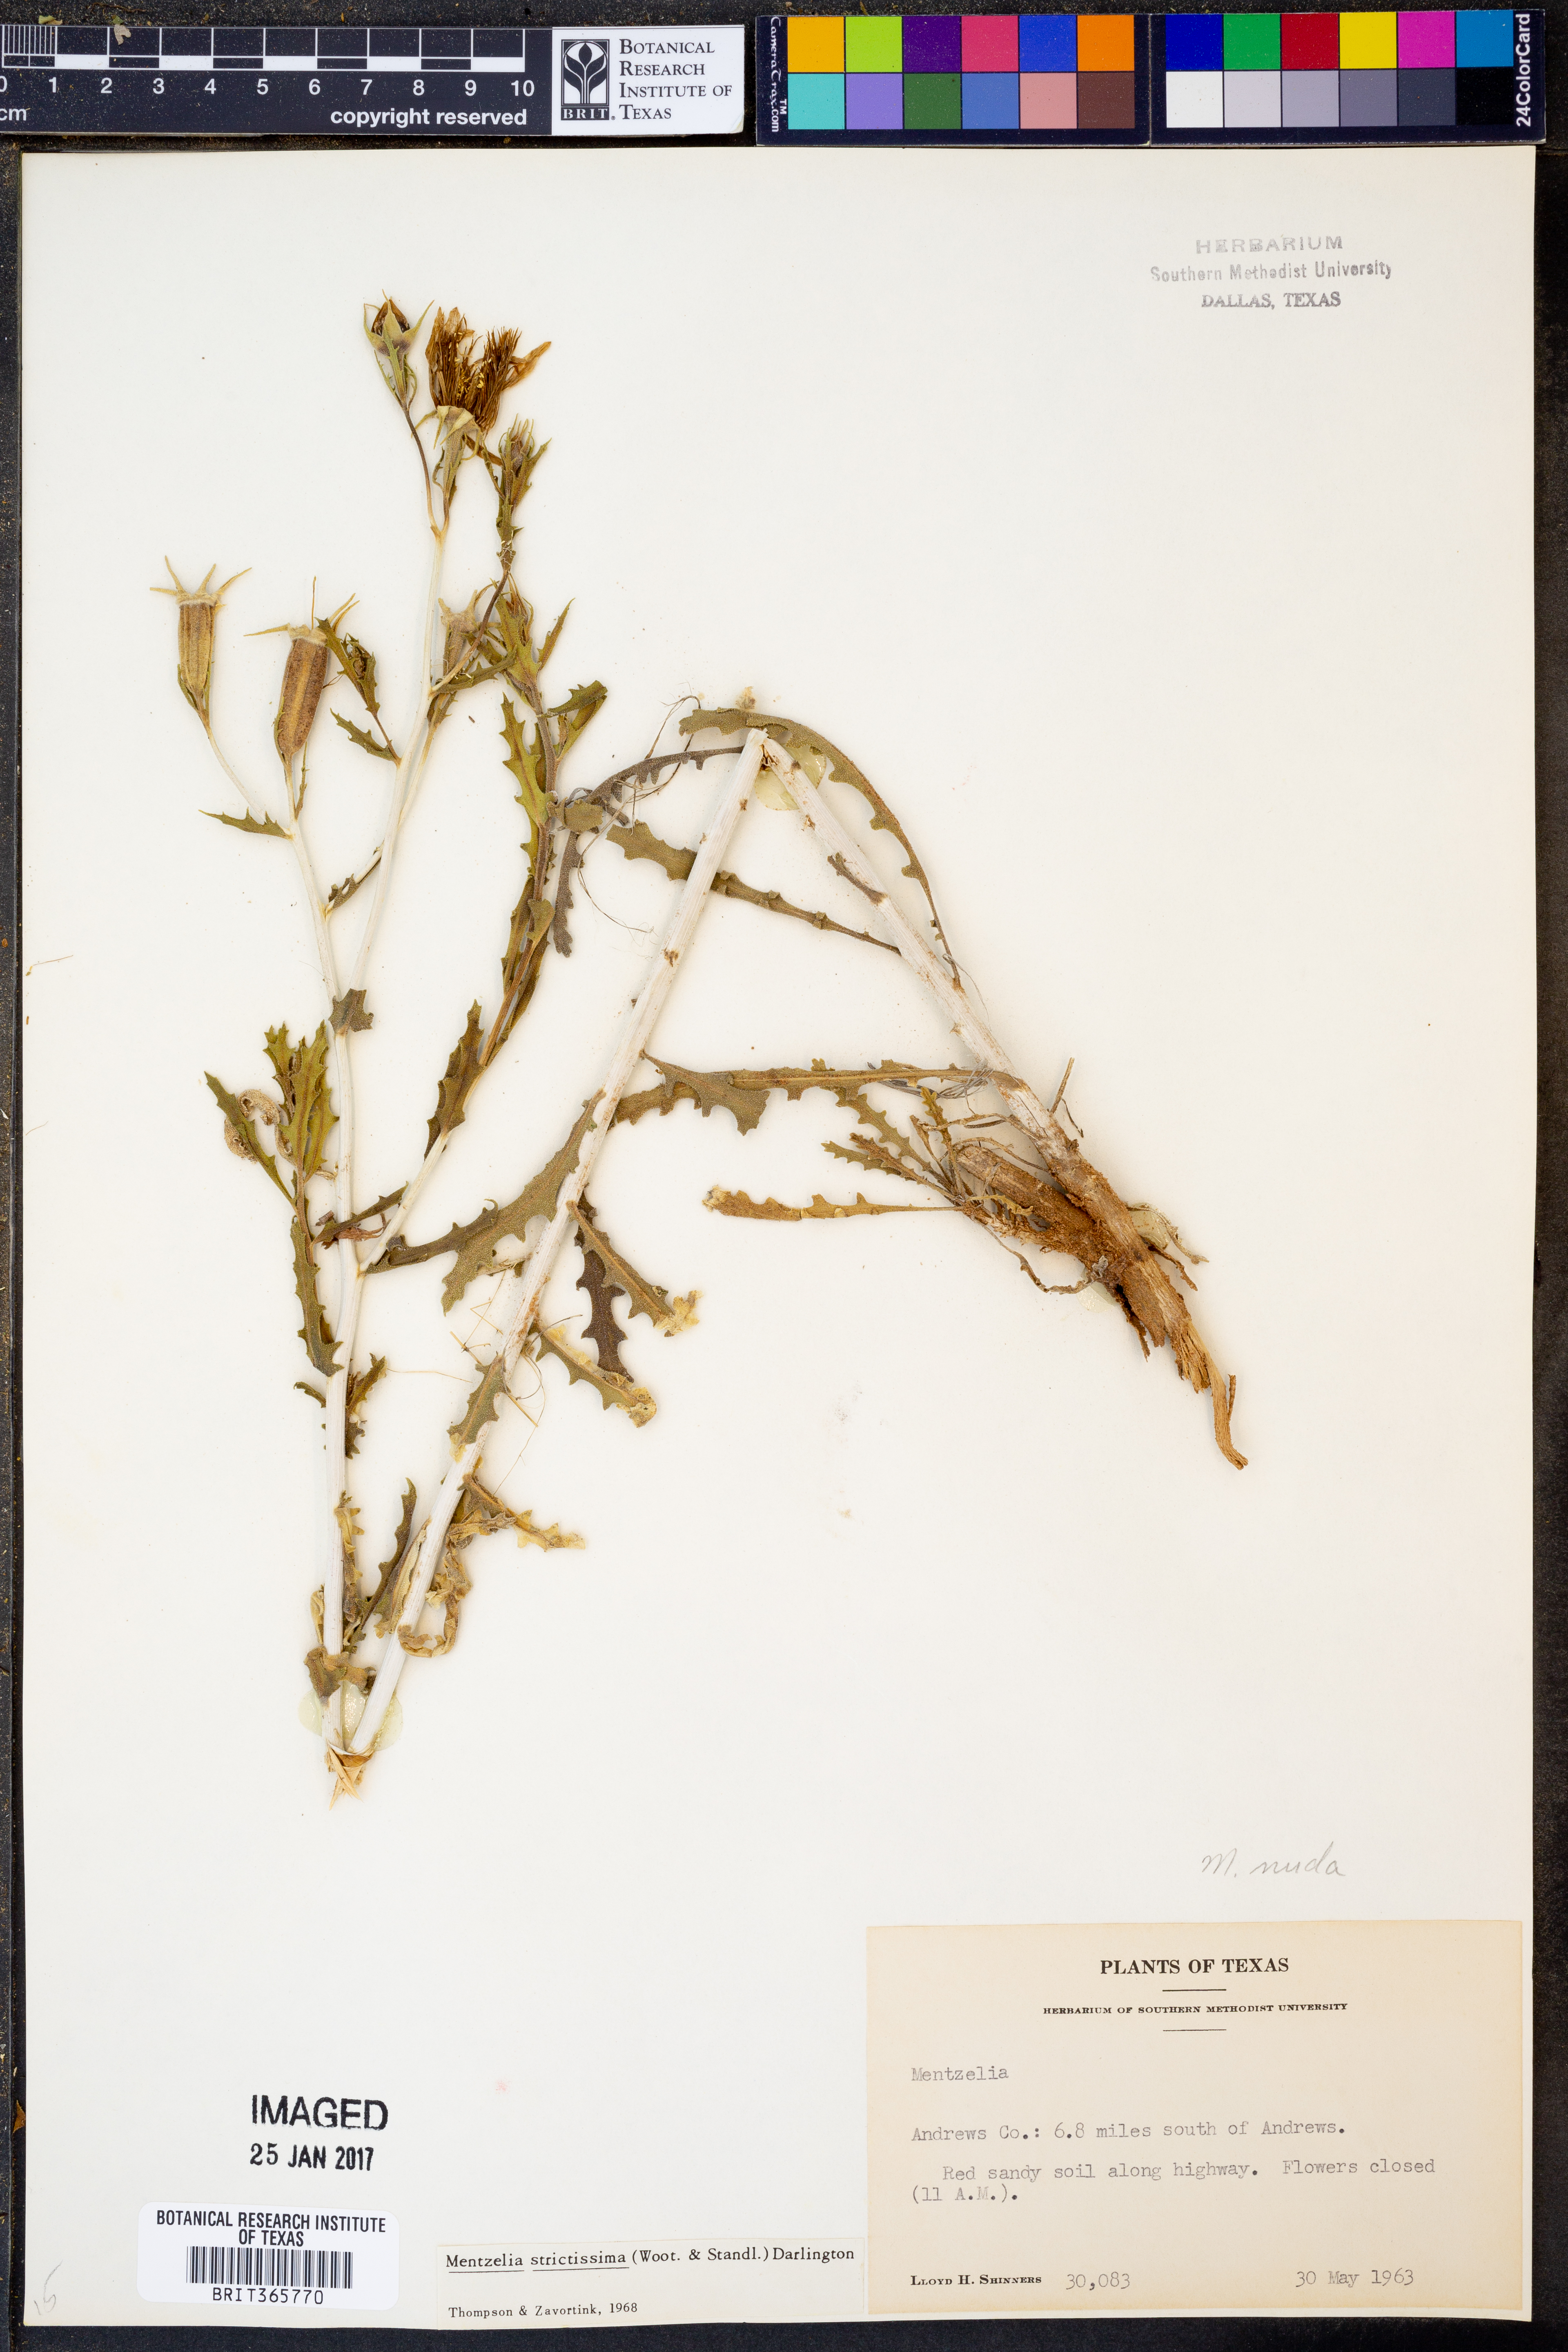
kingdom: Plantae
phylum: Tracheophyta
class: Magnoliopsida
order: Cornales
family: Loasaceae
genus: Mentzelia
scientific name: Mentzelia strictissima
